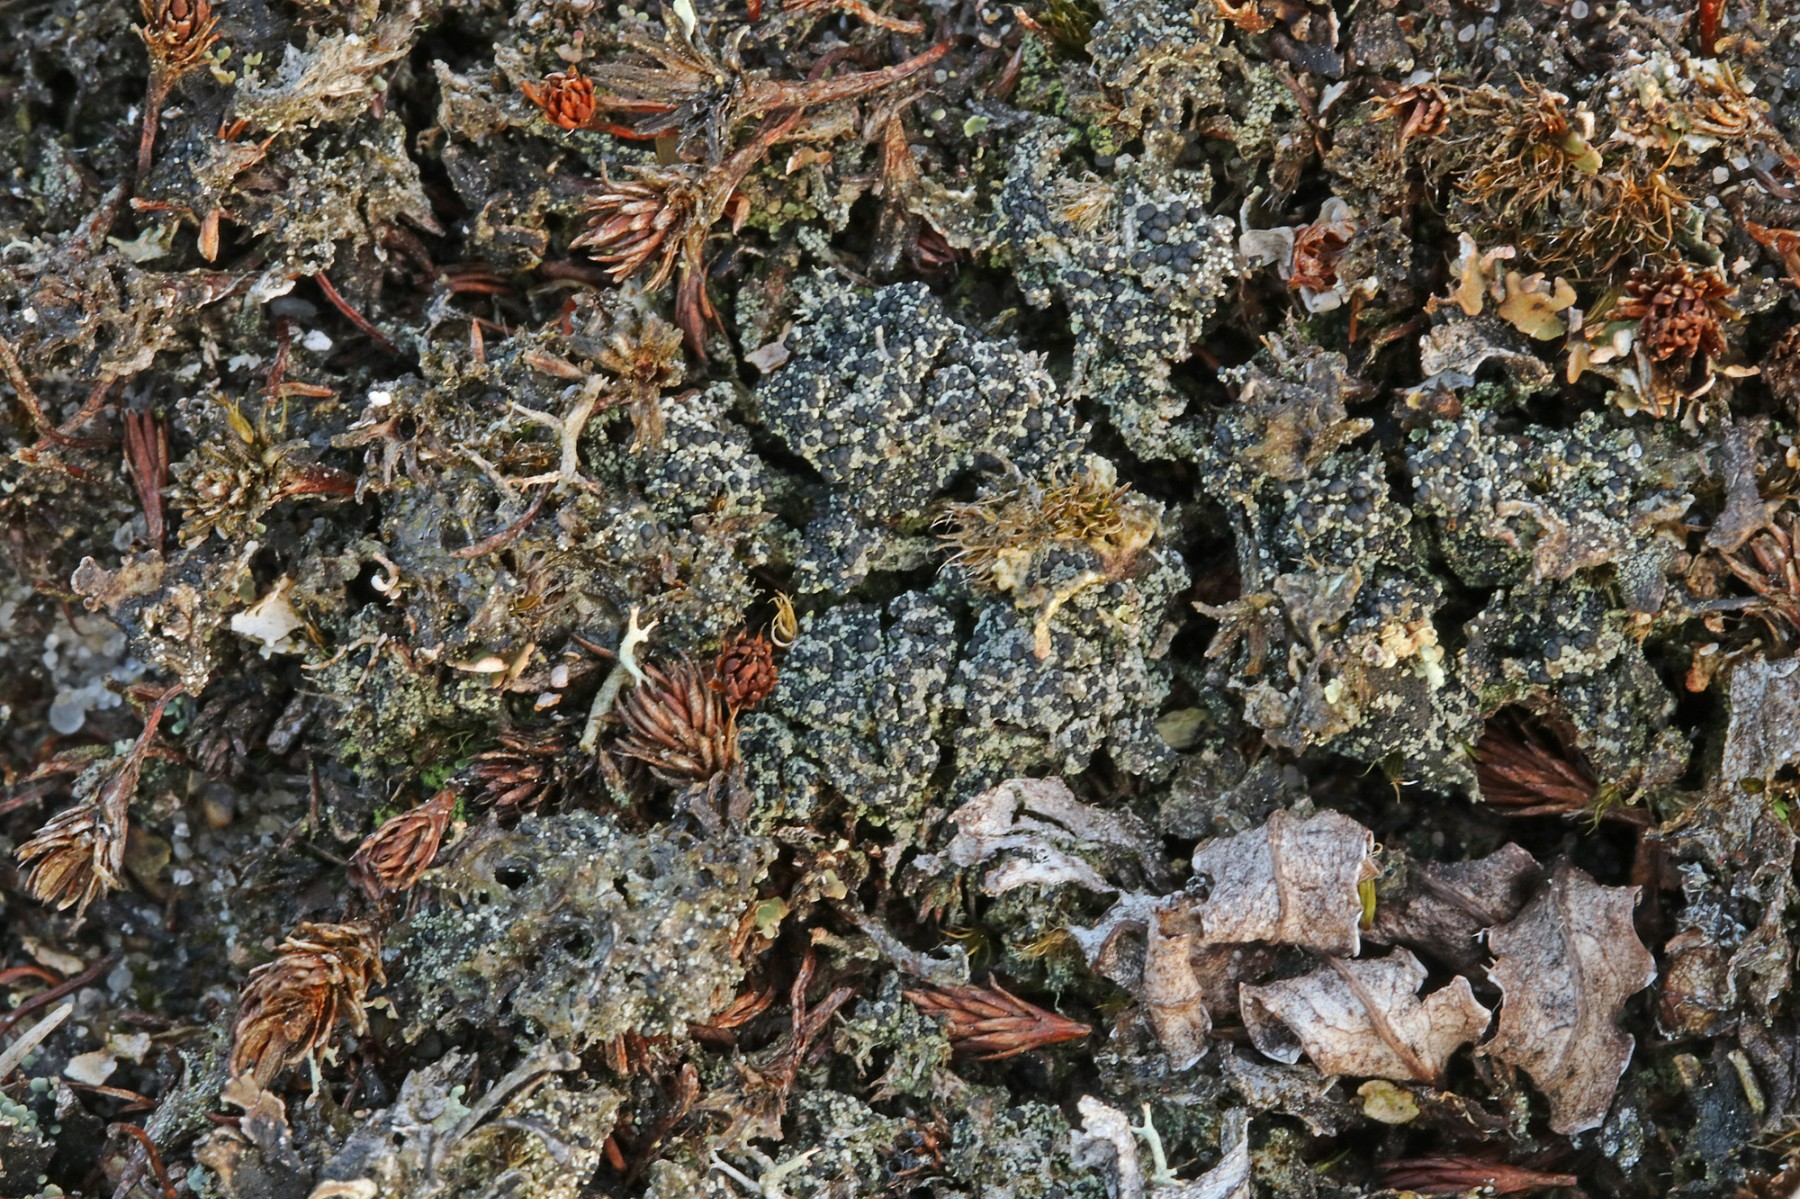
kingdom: Fungi
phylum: Ascomycota
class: Lecanoromycetes
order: Lecanorales
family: Byssolomataceae
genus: Micarea
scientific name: Micarea lignaria
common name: tørve-knaplav
